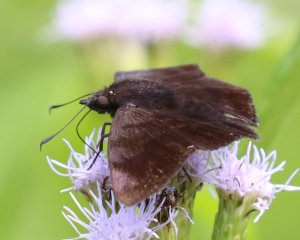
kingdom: Animalia
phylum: Arthropoda
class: Insecta
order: Lepidoptera
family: Hesperiidae
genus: Pellicia
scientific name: Pellicia costimacula
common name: Glazed Pellicia
